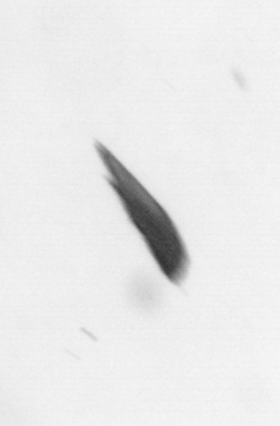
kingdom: Bacteria
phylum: Cyanobacteria
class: Cyanobacteriia
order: Cyanobacteriales
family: Microcoleaceae
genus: Trichodesmium
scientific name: Trichodesmium
